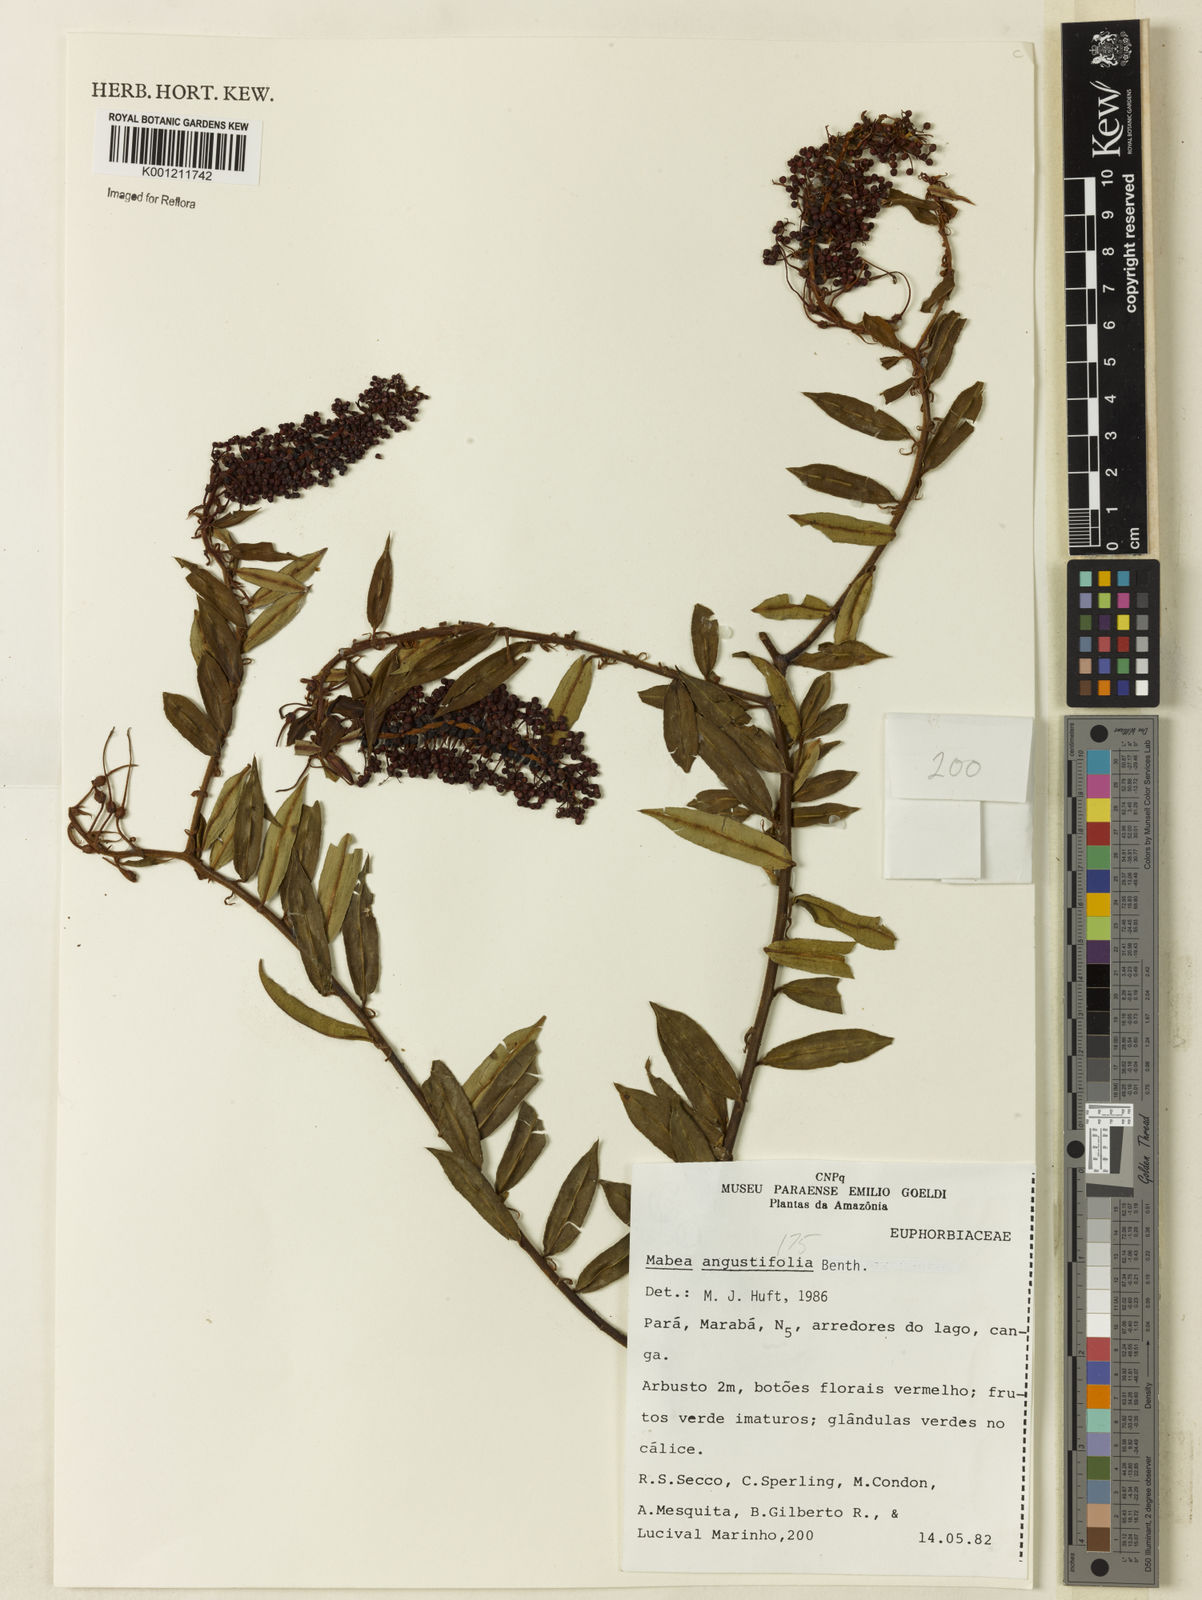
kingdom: Plantae
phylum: Tracheophyta
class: Magnoliopsida
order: Malpighiales
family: Euphorbiaceae
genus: Mabea
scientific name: Mabea angustifolia
